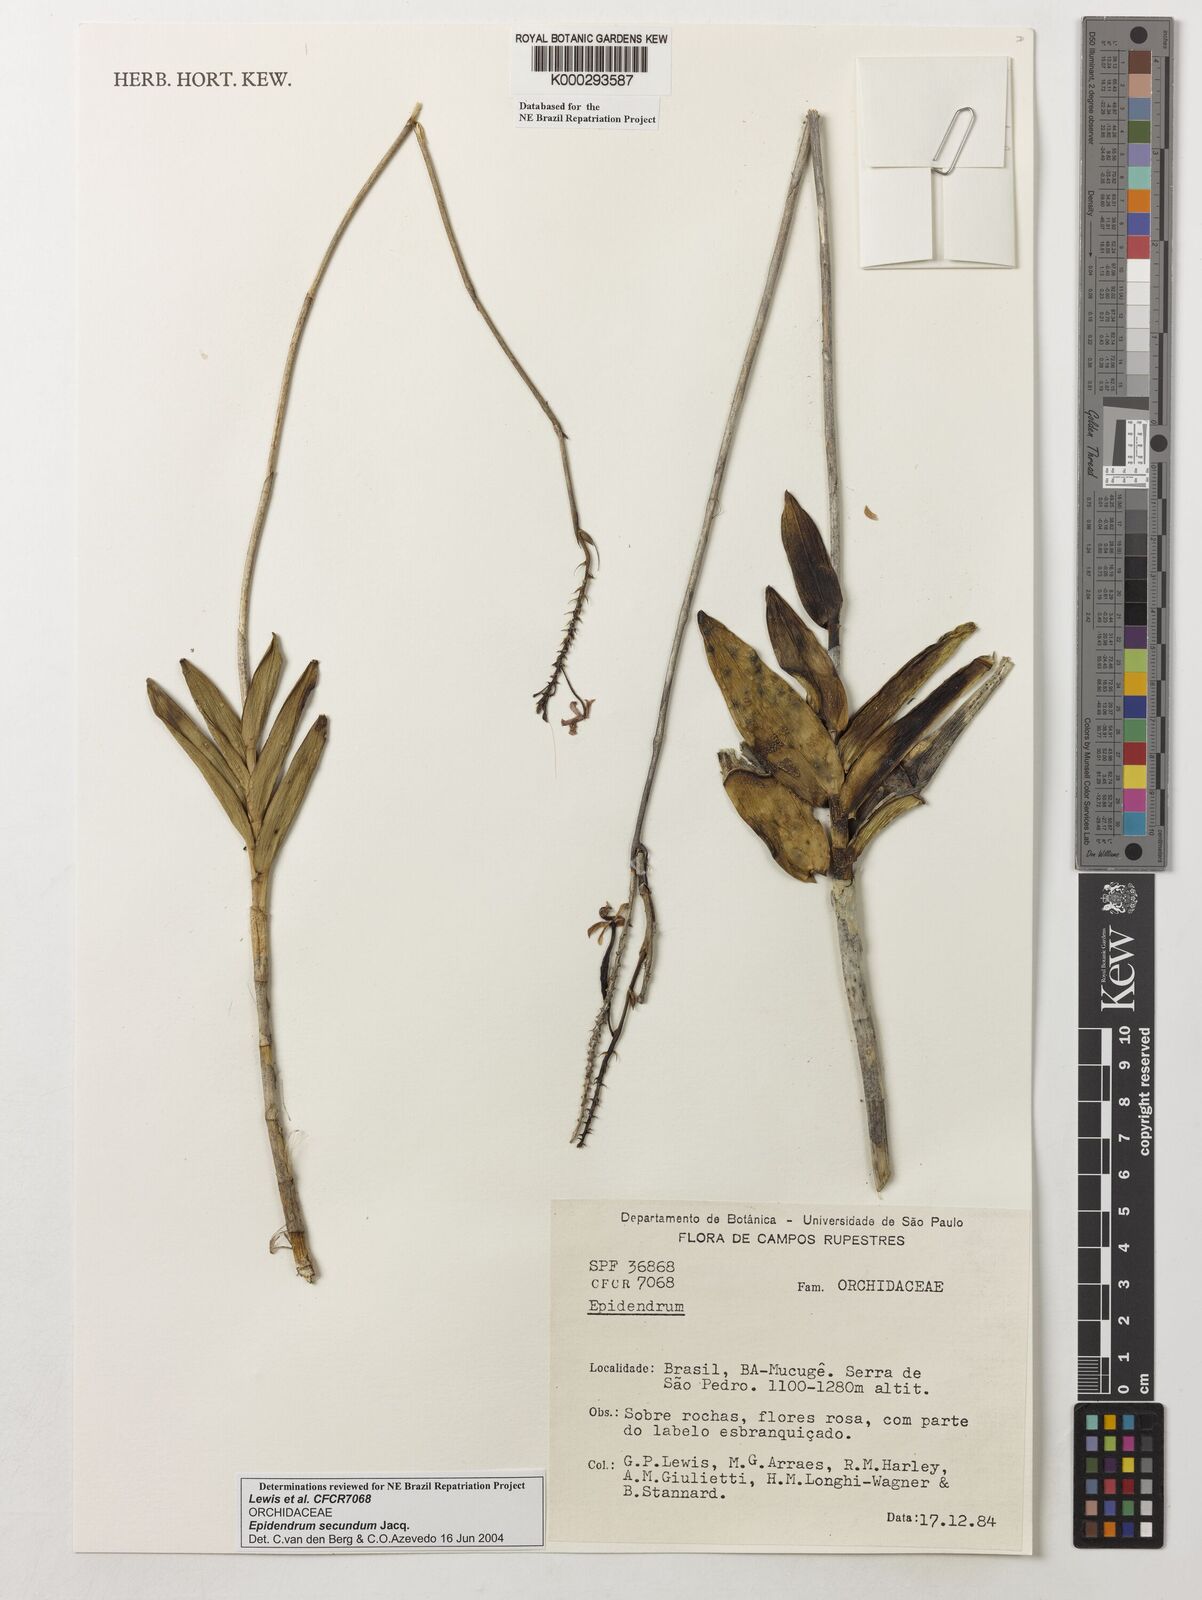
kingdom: Plantae
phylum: Tracheophyta
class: Liliopsida
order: Asparagales
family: Orchidaceae
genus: Epidendrum
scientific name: Epidendrum secundum
